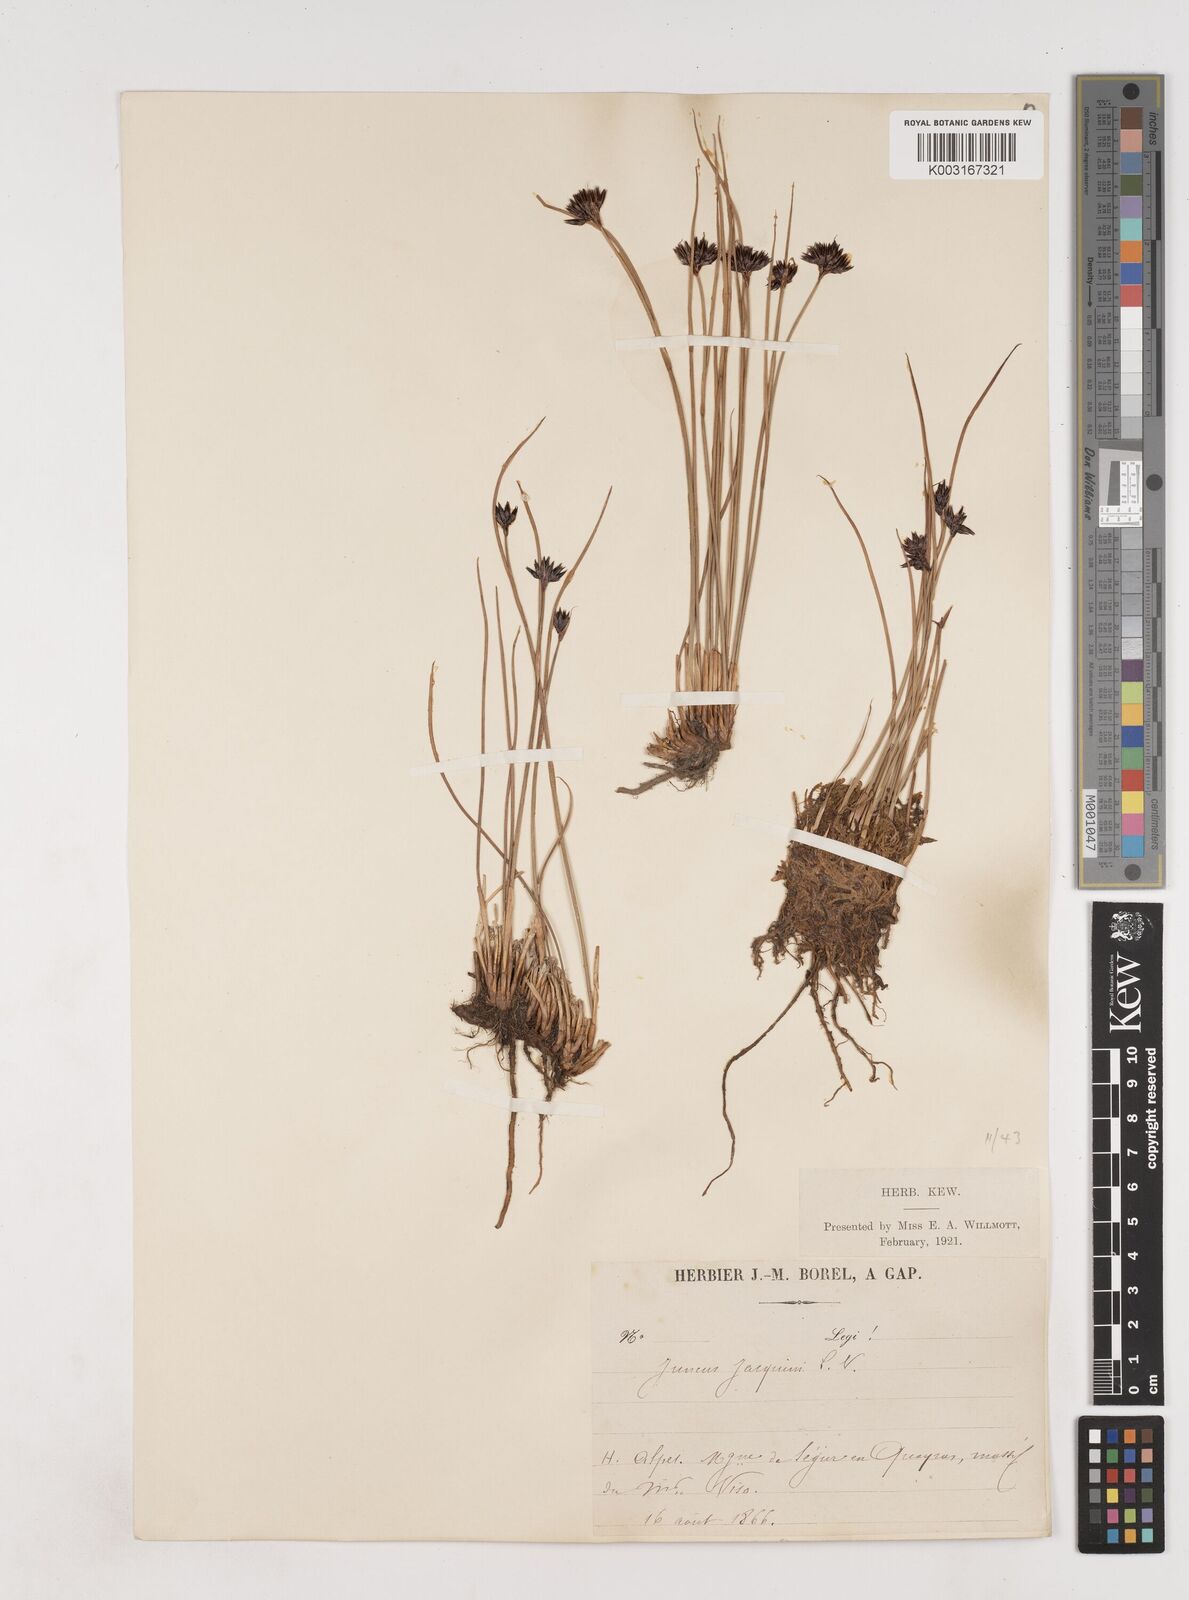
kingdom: Plantae
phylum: Tracheophyta
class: Liliopsida
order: Poales
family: Juncaceae
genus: Juncus
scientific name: Juncus jacquinii
